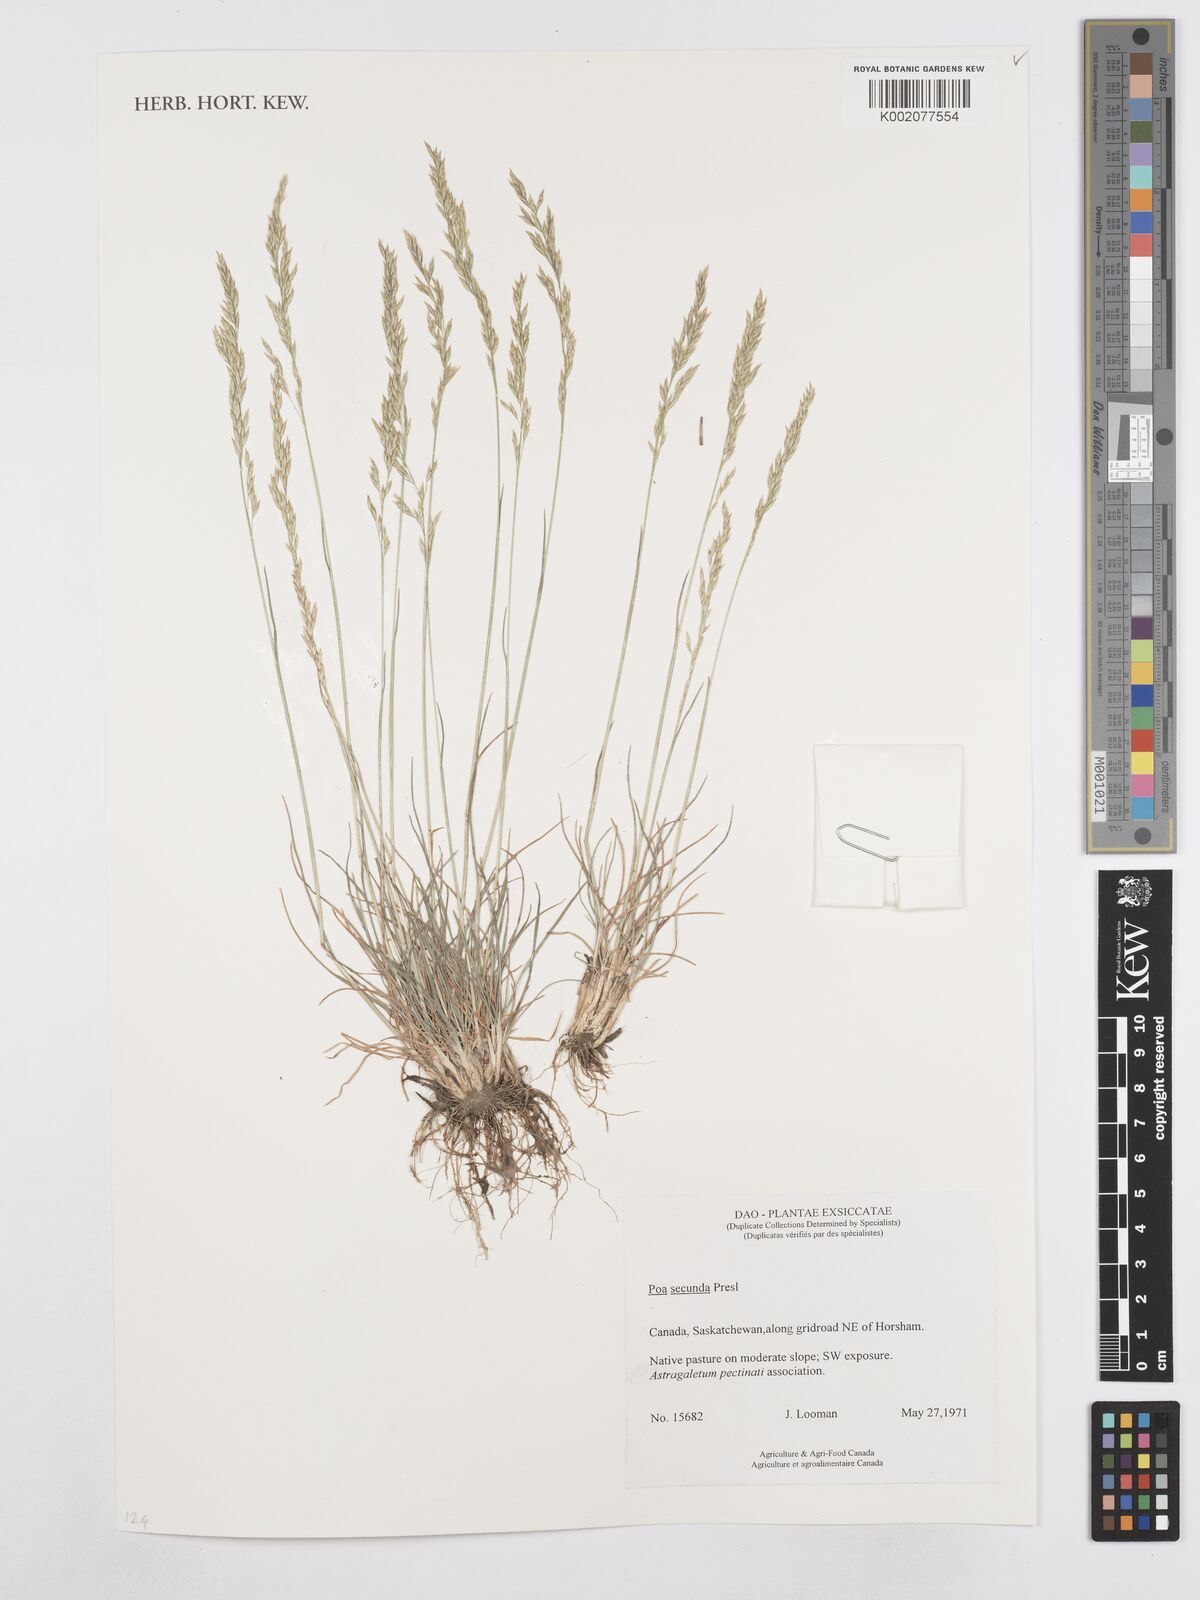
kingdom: Plantae
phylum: Tracheophyta
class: Liliopsida
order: Poales
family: Poaceae
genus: Poa
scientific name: Poa secunda
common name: Sandberg bluegrass
